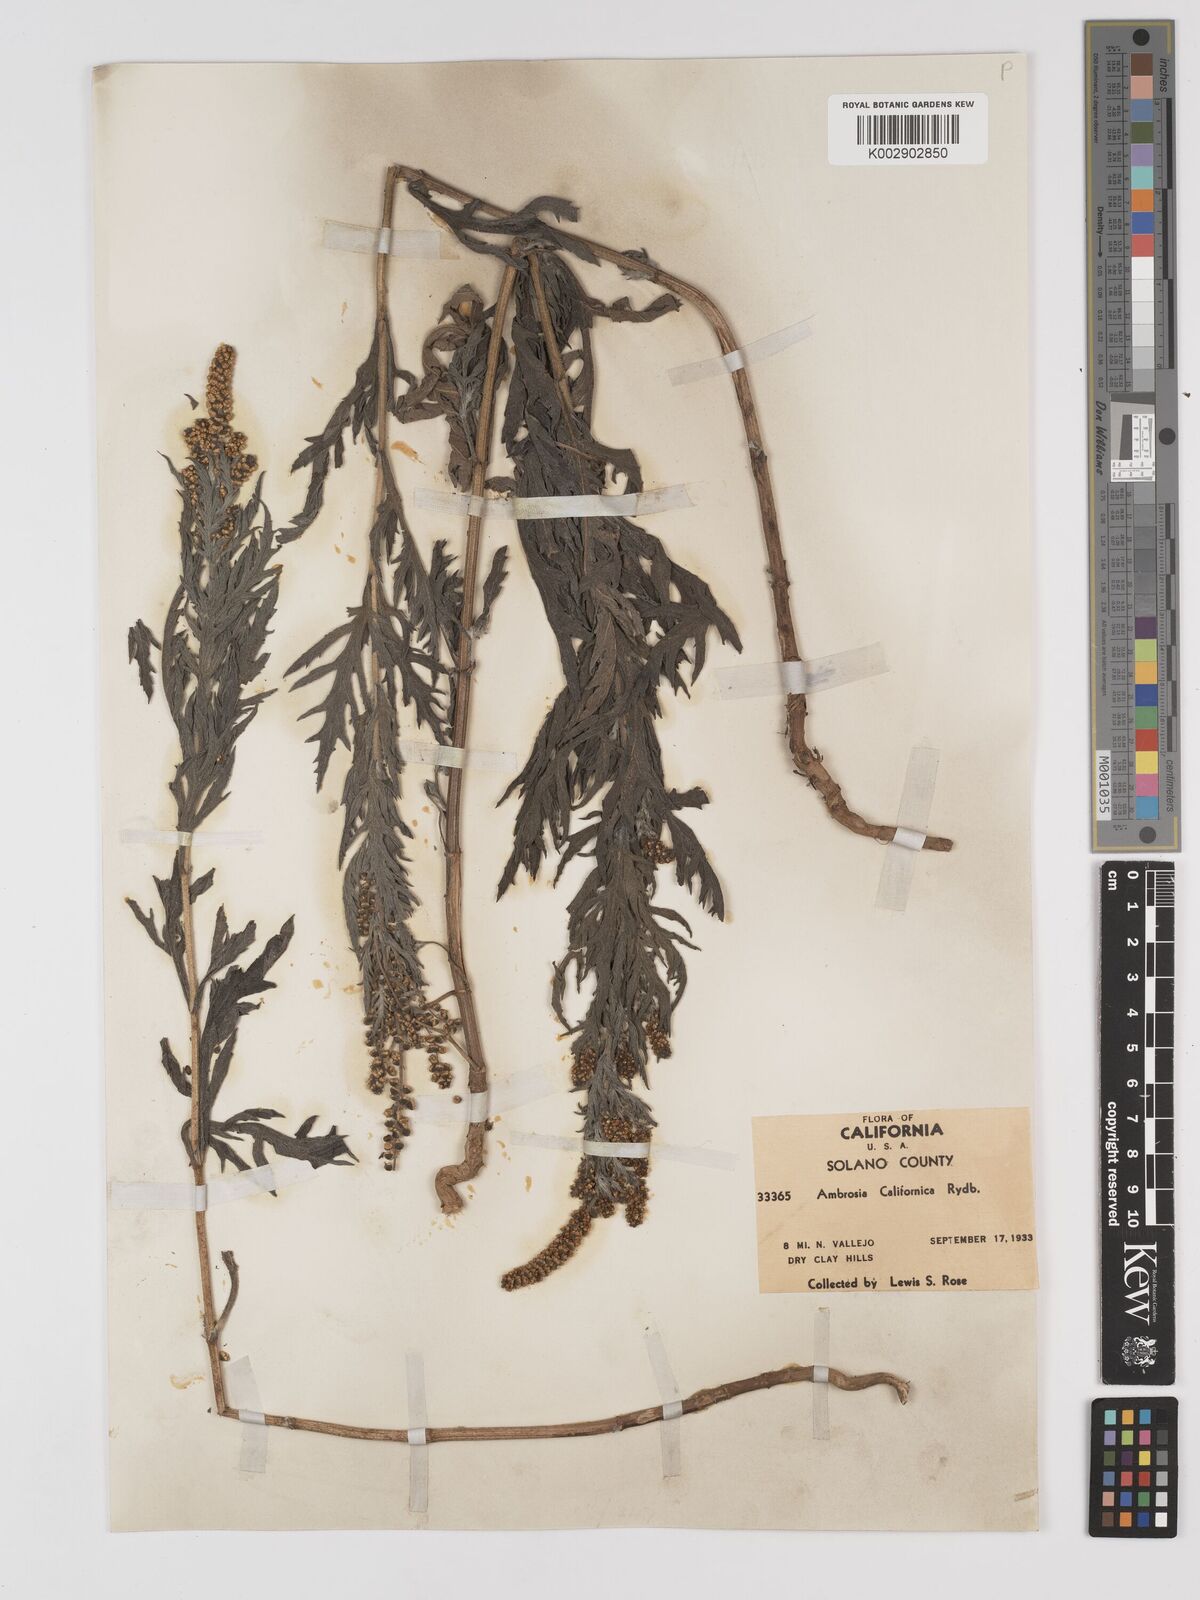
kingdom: Plantae
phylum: Tracheophyta
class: Magnoliopsida
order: Asterales
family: Asteraceae
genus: Ambrosia
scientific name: Ambrosia psilostachya
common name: Perennial ragweed
